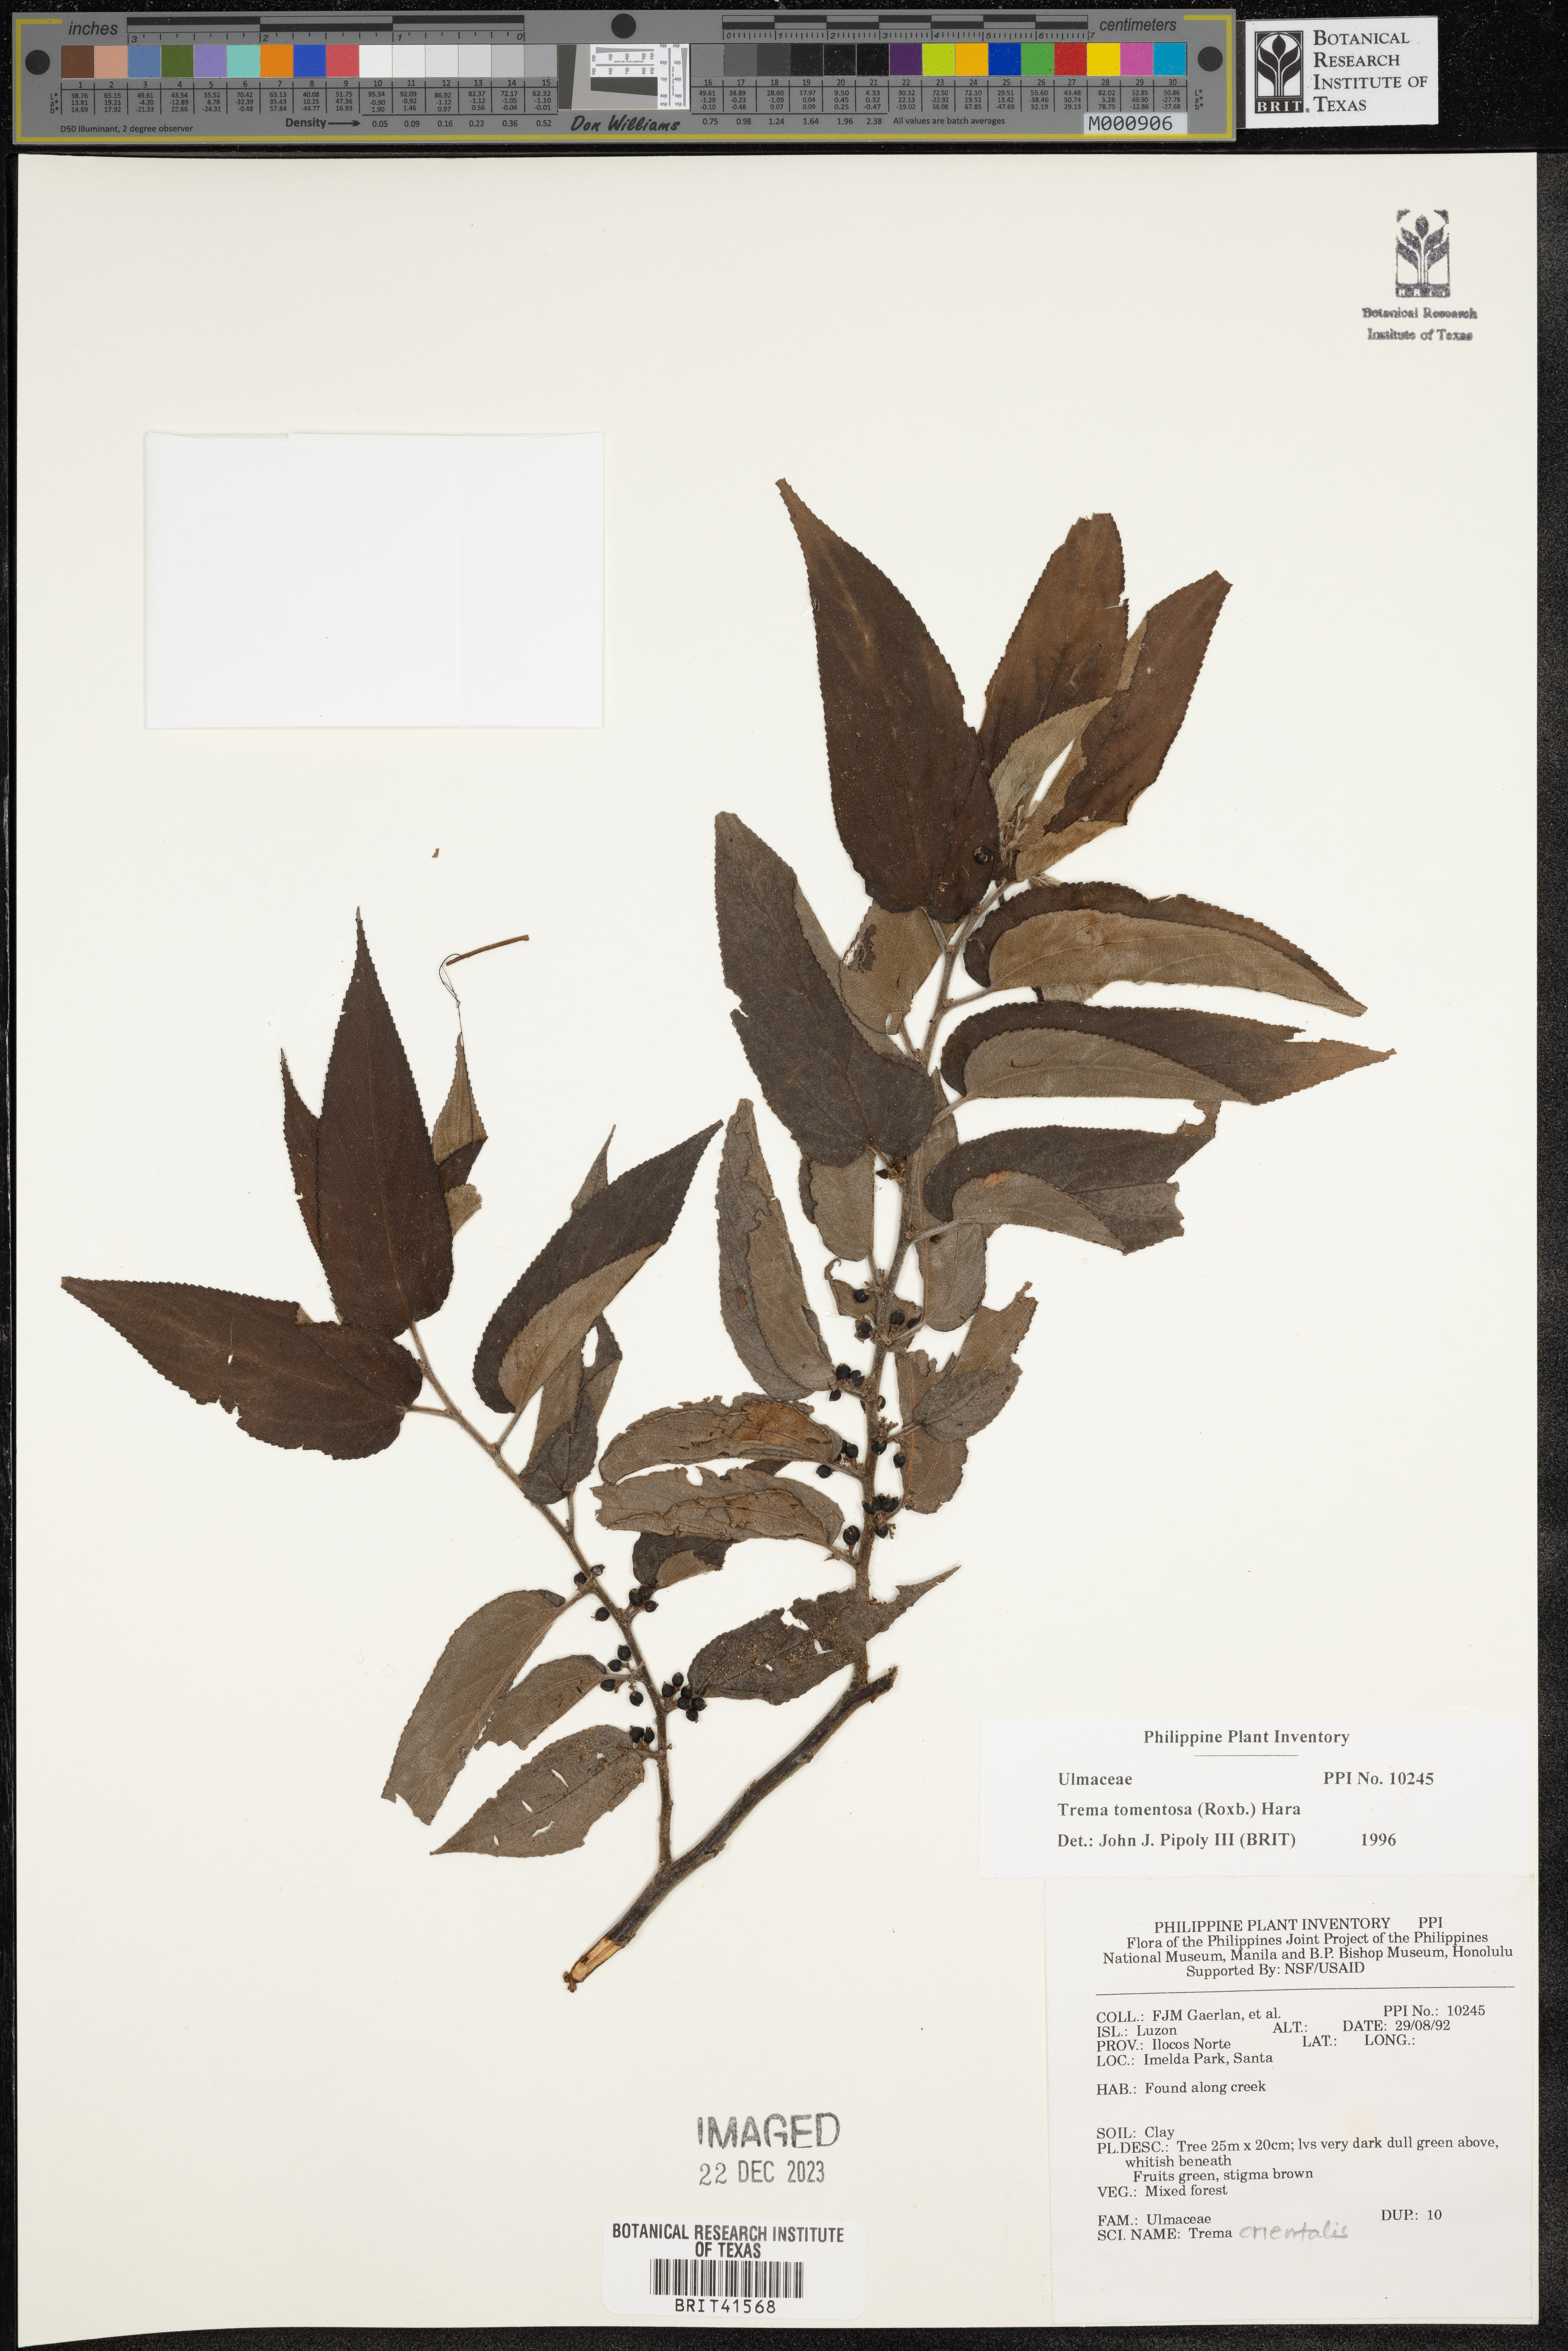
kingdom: Plantae
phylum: Tracheophyta
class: Magnoliopsida
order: Rosales
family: Cannabaceae
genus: Trema
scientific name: Trema tomentosum
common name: Peach-leaf-poisonbush
